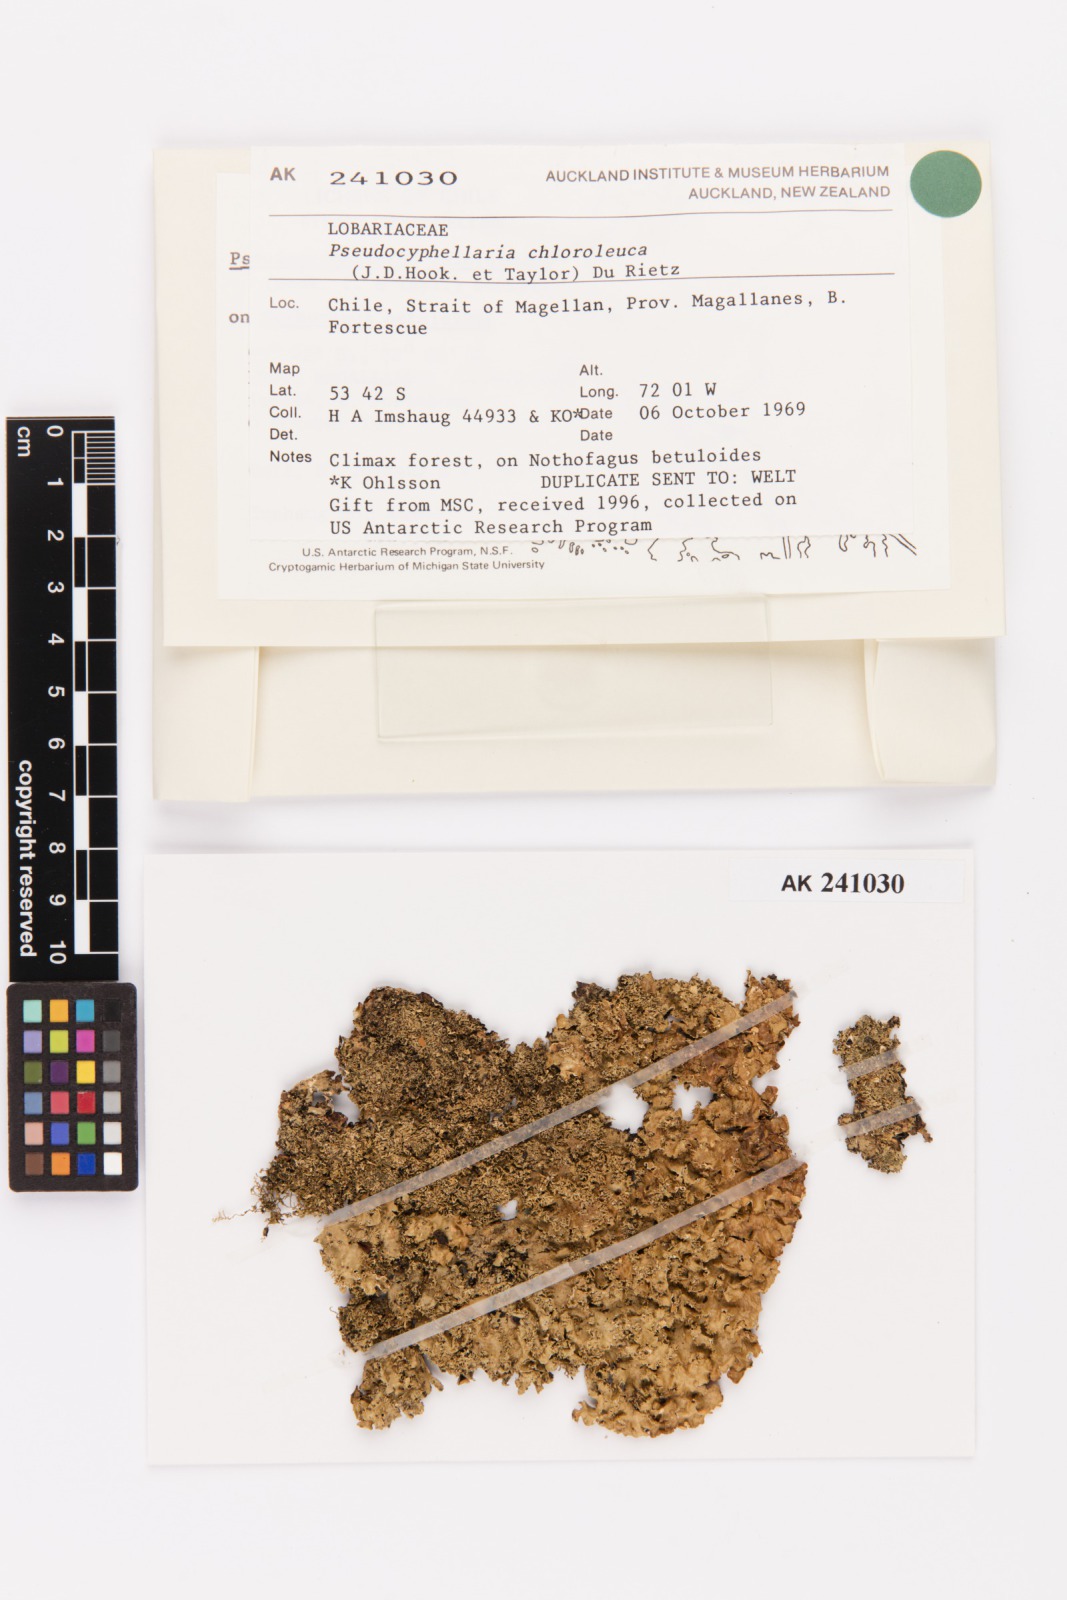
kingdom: Fungi
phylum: Ascomycota
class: Lecanoromycetes
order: Peltigerales
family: Lobariaceae
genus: Pseudocyphellaria
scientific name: Pseudocyphellaria chloroleuca
